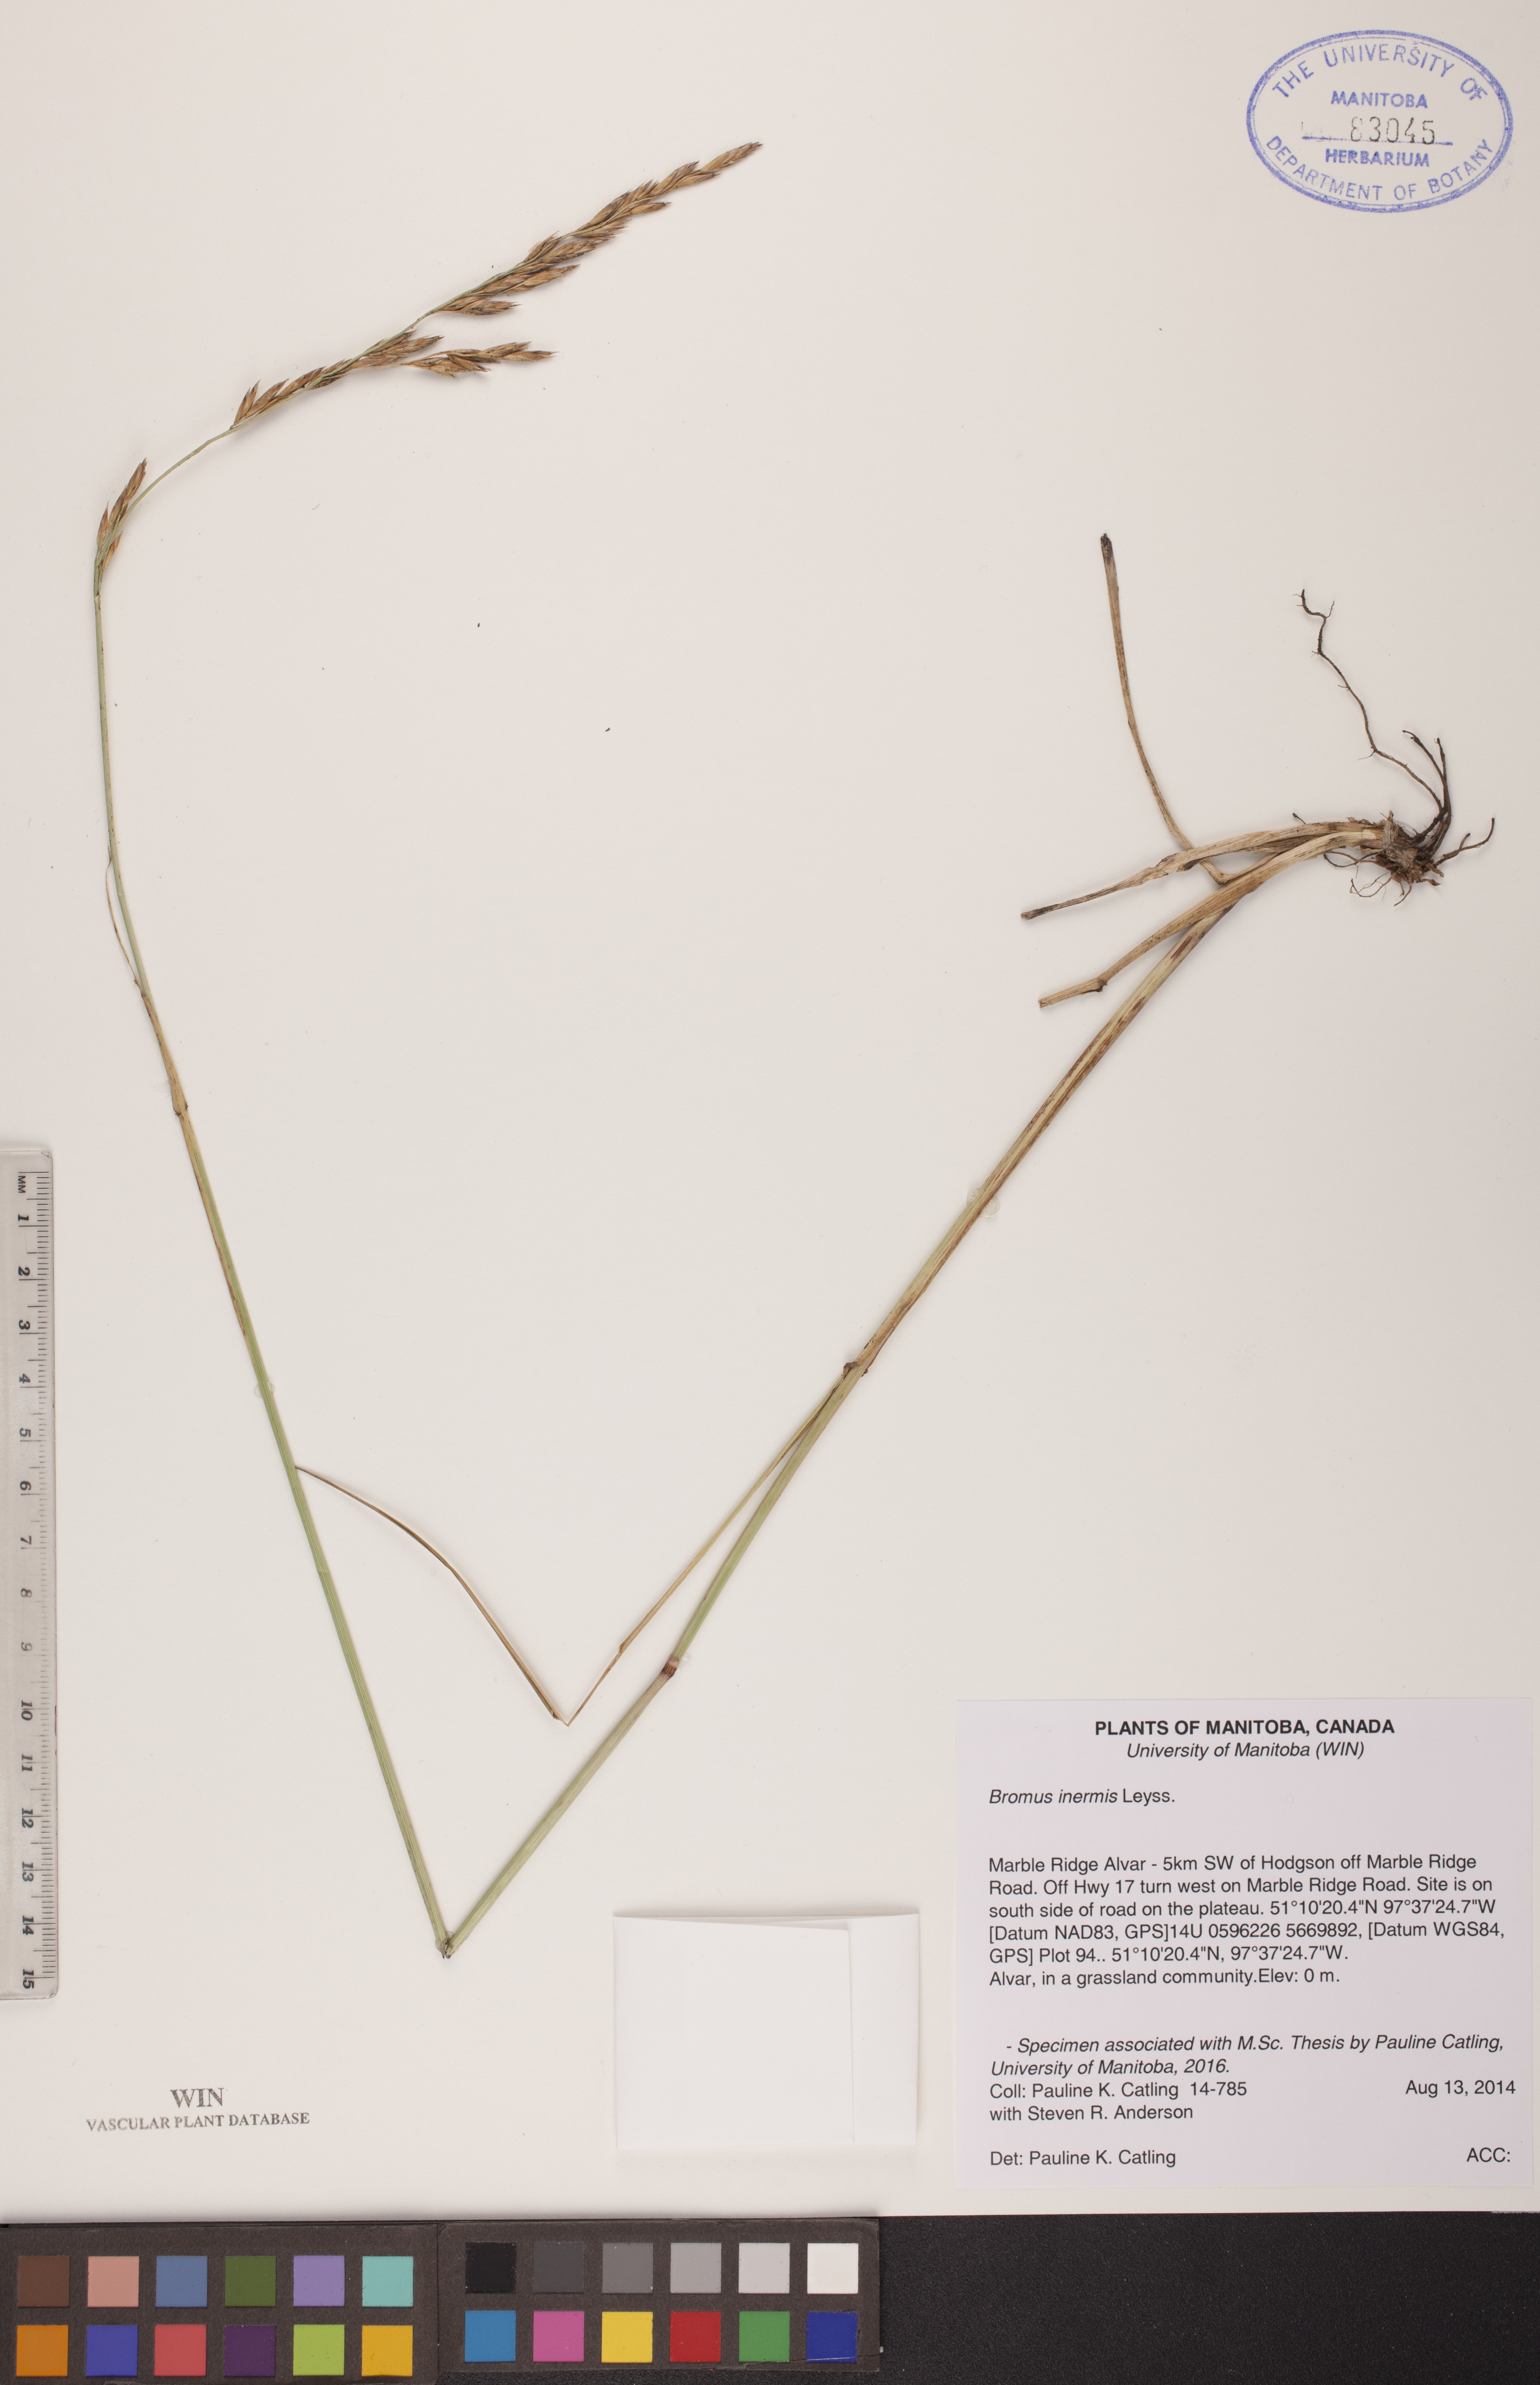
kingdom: Plantae
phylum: Tracheophyta
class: Liliopsida
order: Poales
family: Poaceae
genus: Bromus
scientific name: Bromus inermis
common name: Smooth brome
